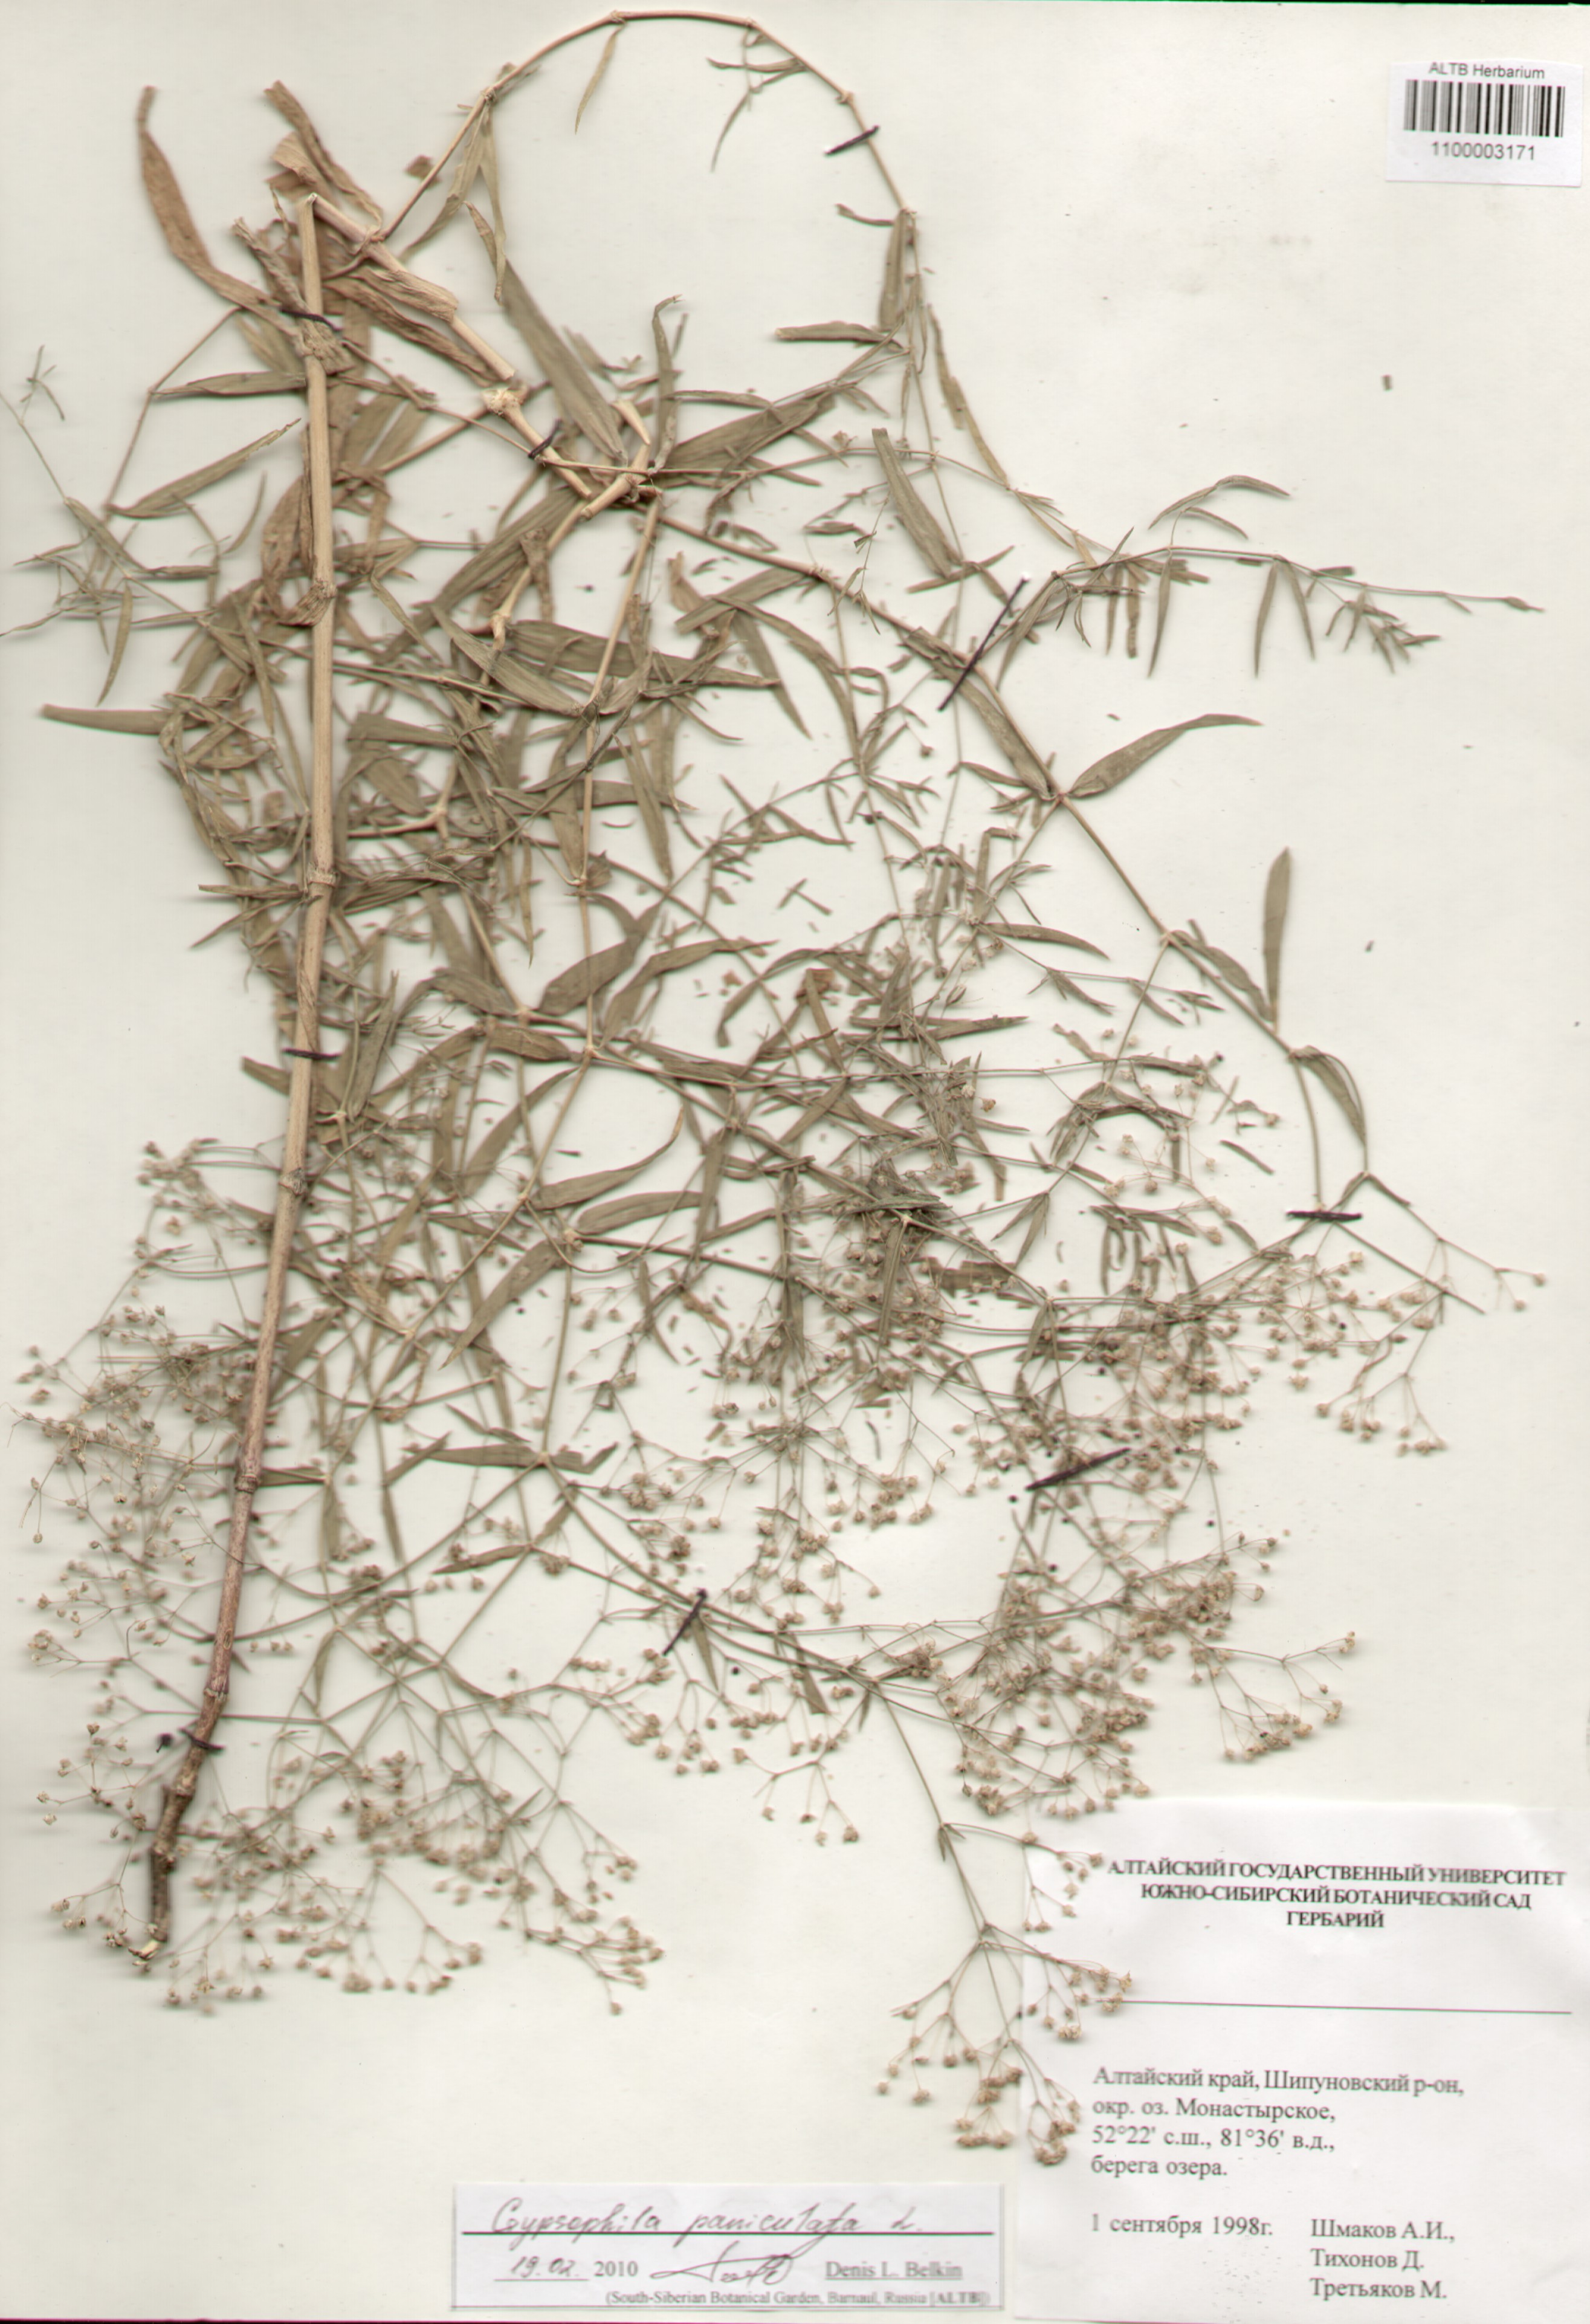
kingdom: Plantae
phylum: Tracheophyta
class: Magnoliopsida
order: Caryophyllales
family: Caryophyllaceae
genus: Gypsophila
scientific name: Gypsophila paniculata
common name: Baby's-breath
